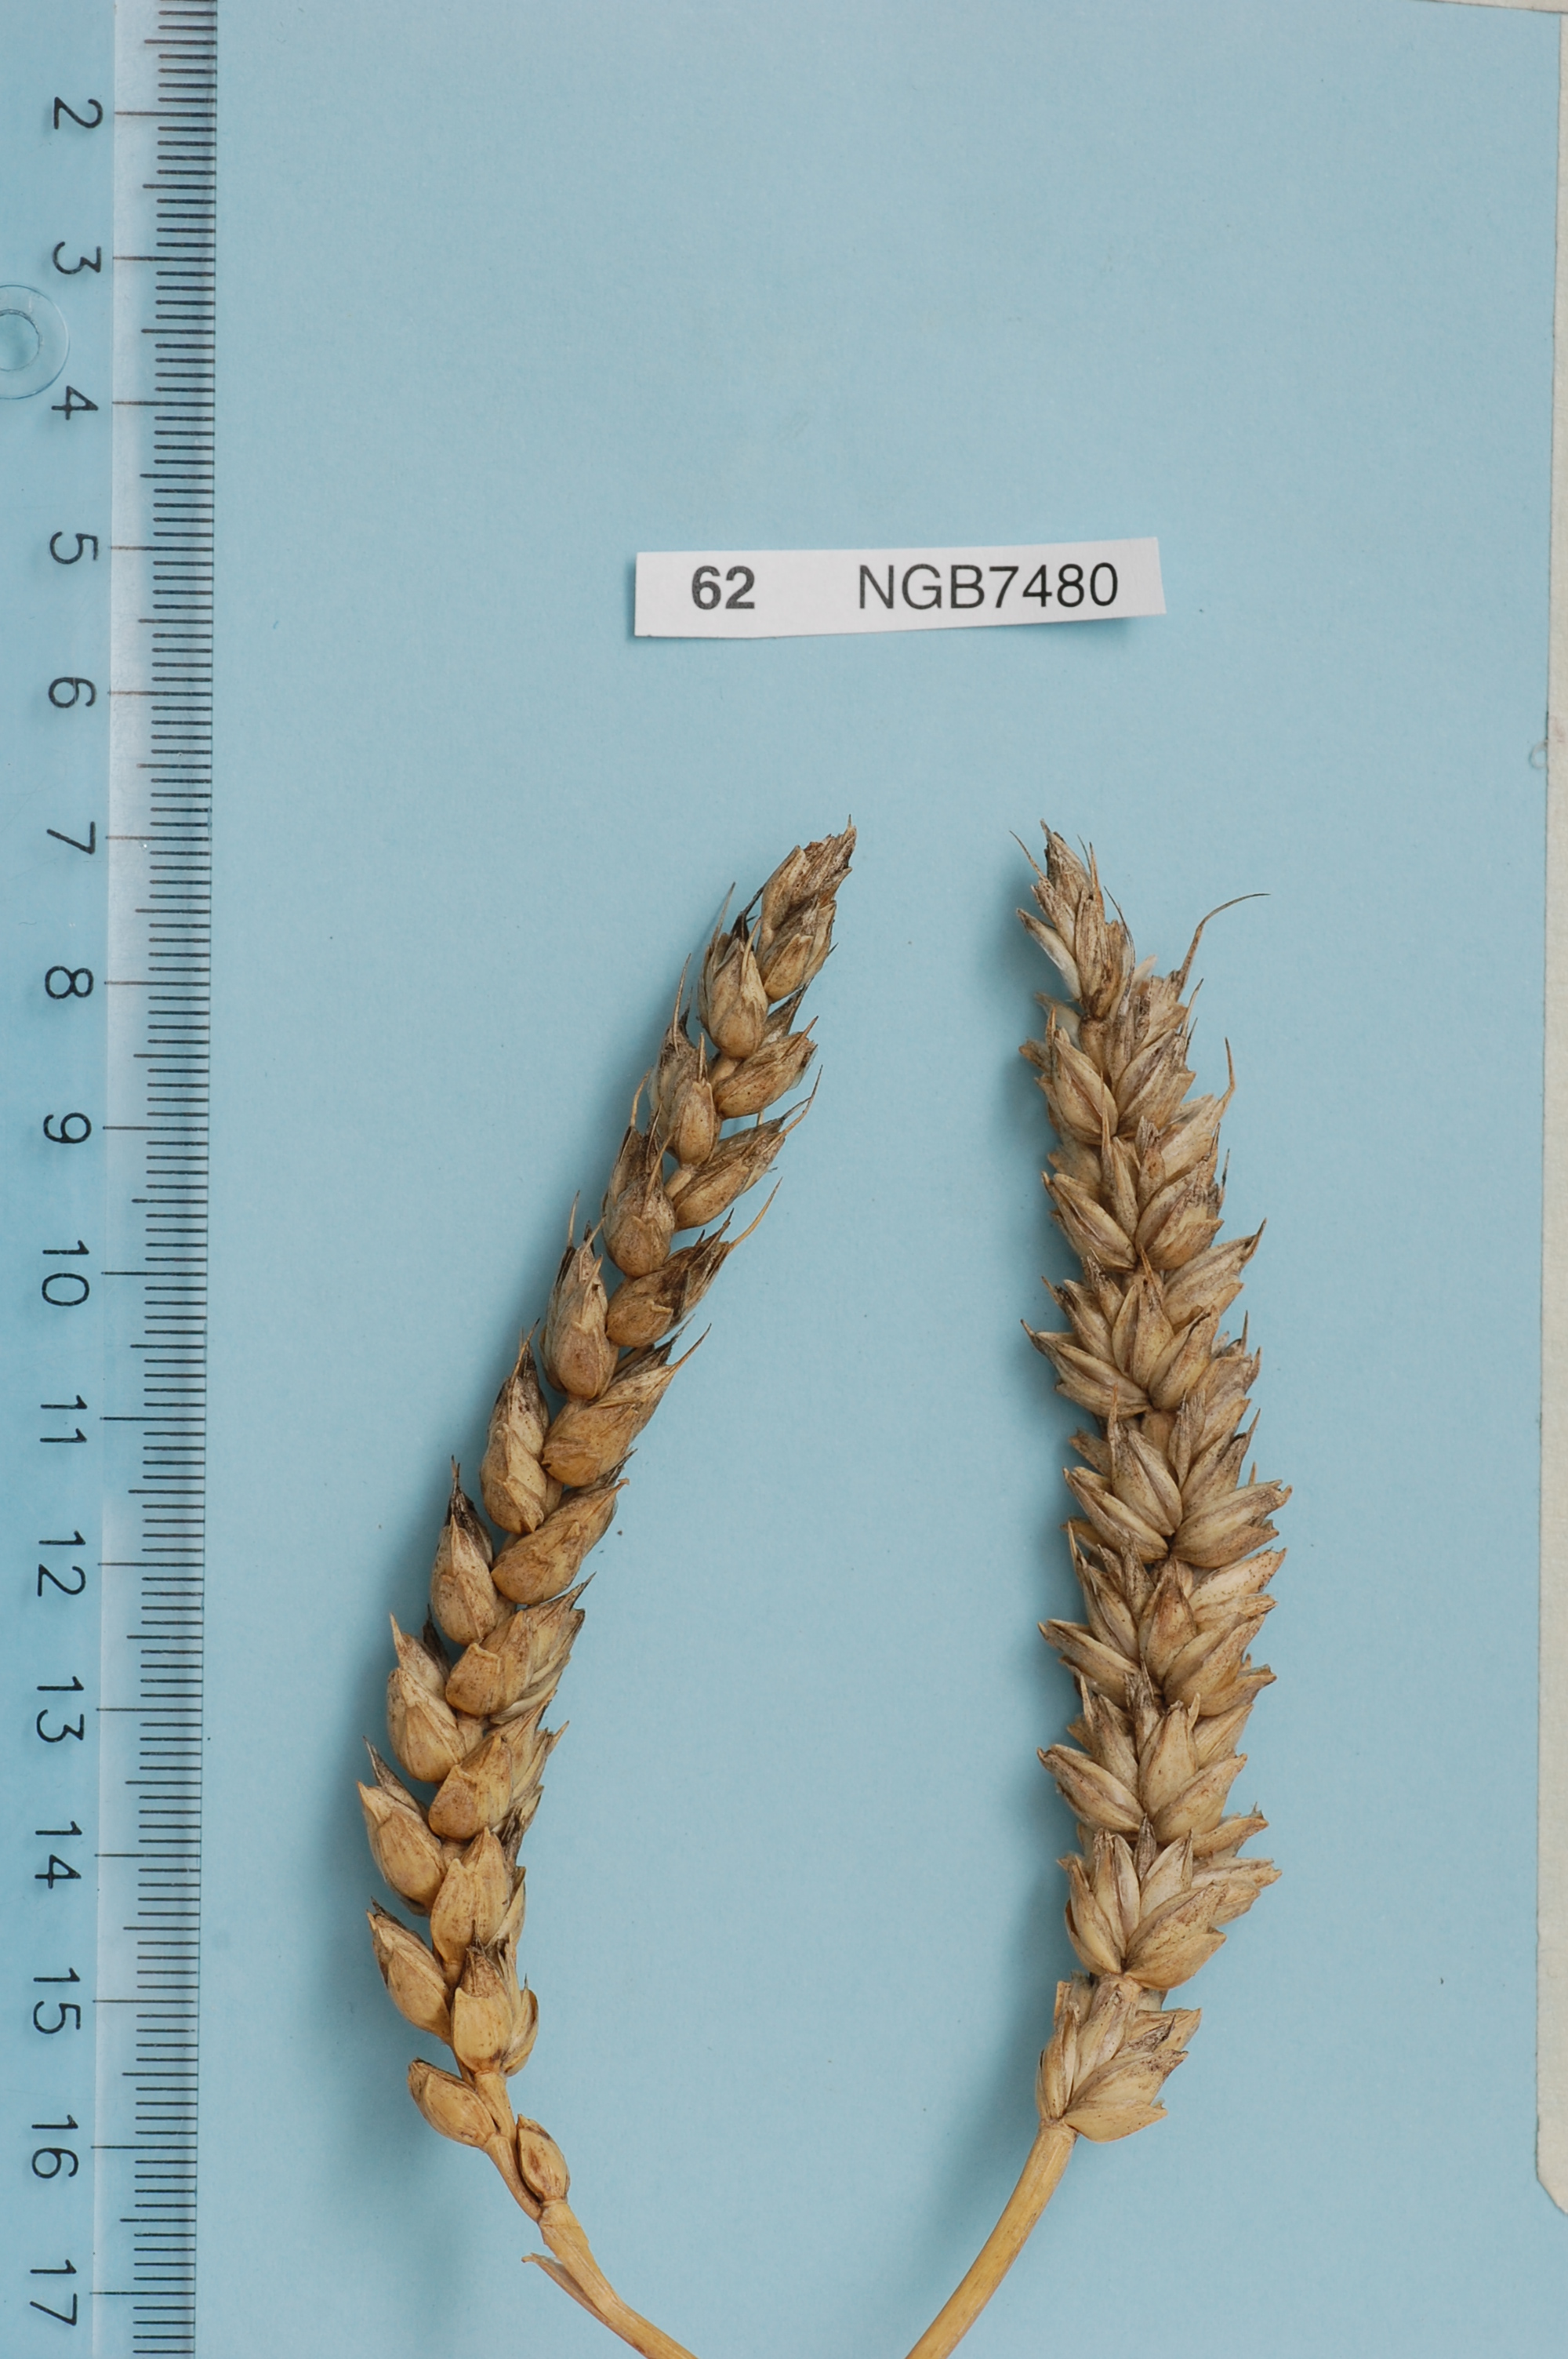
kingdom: Plantae
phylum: Tracheophyta
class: Liliopsida
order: Poales
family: Poaceae
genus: Triticum
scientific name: Triticum aestivum
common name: Common wheat
